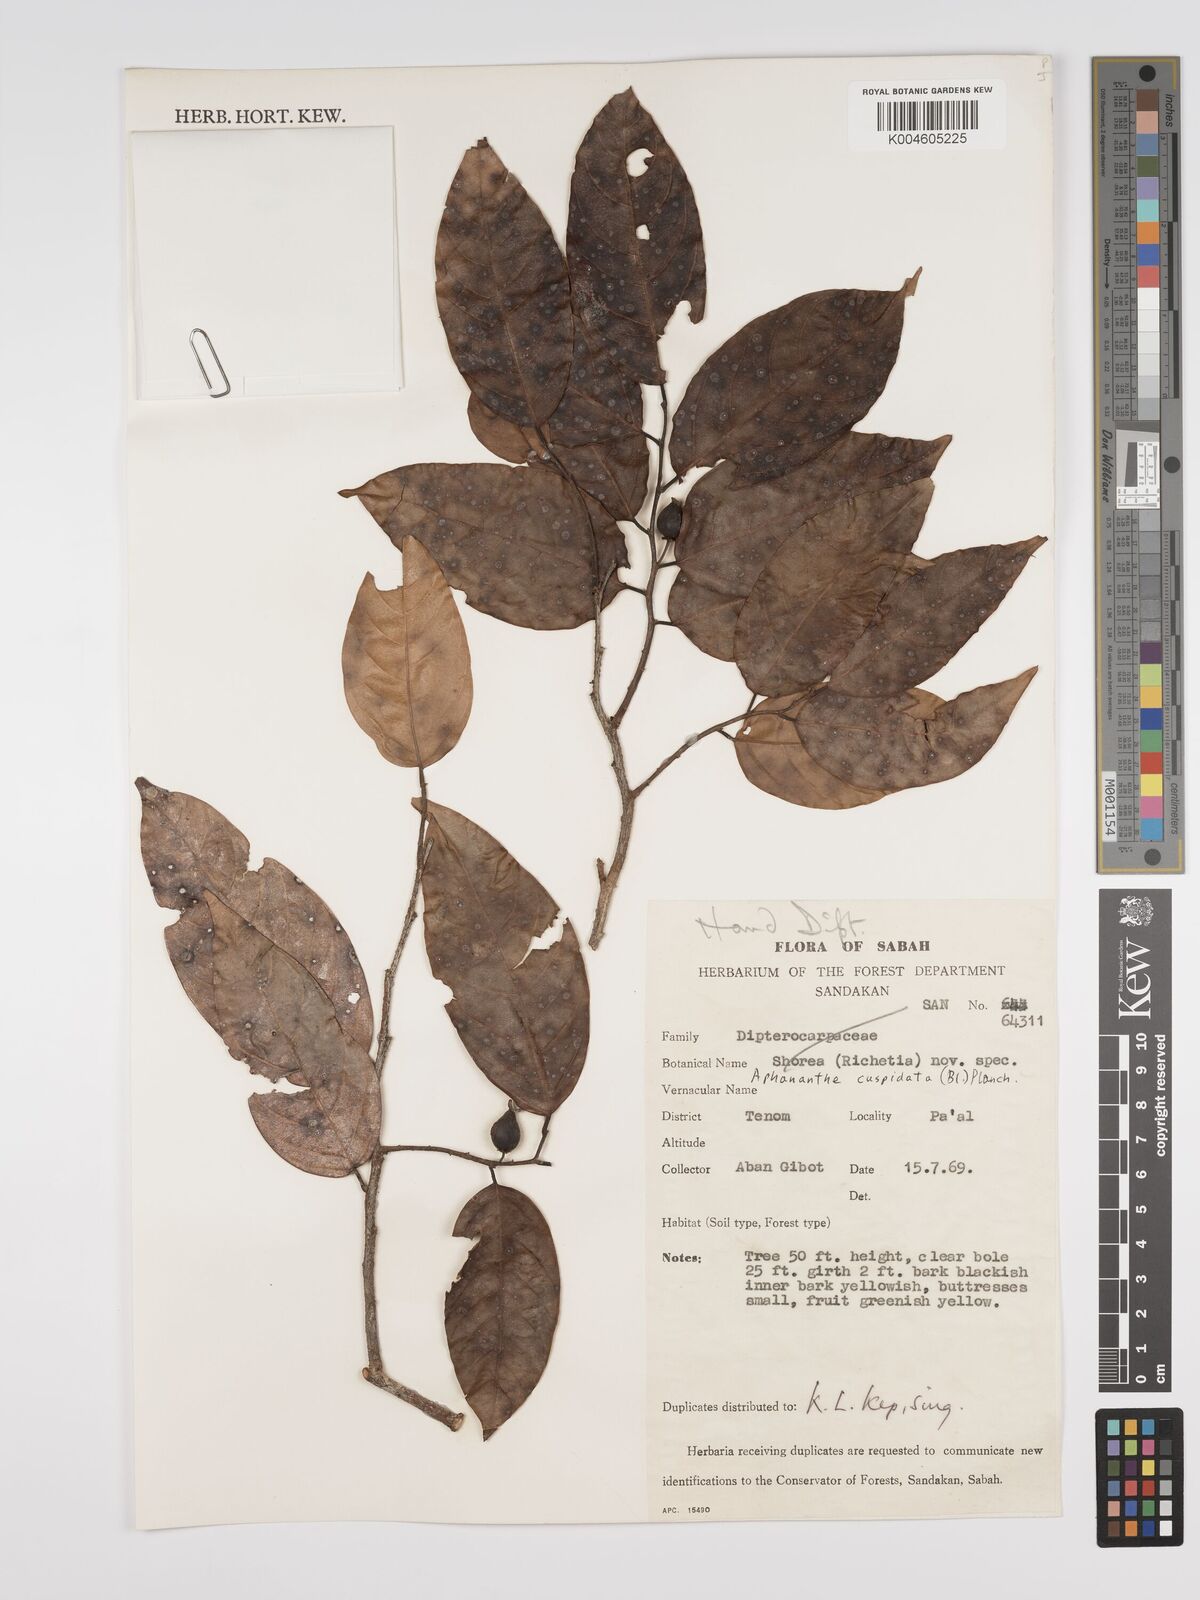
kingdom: Plantae
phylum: Tracheophyta
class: Magnoliopsida
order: Rosales
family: Cannabaceae
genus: Aphananthe
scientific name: Aphananthe cuspidata
